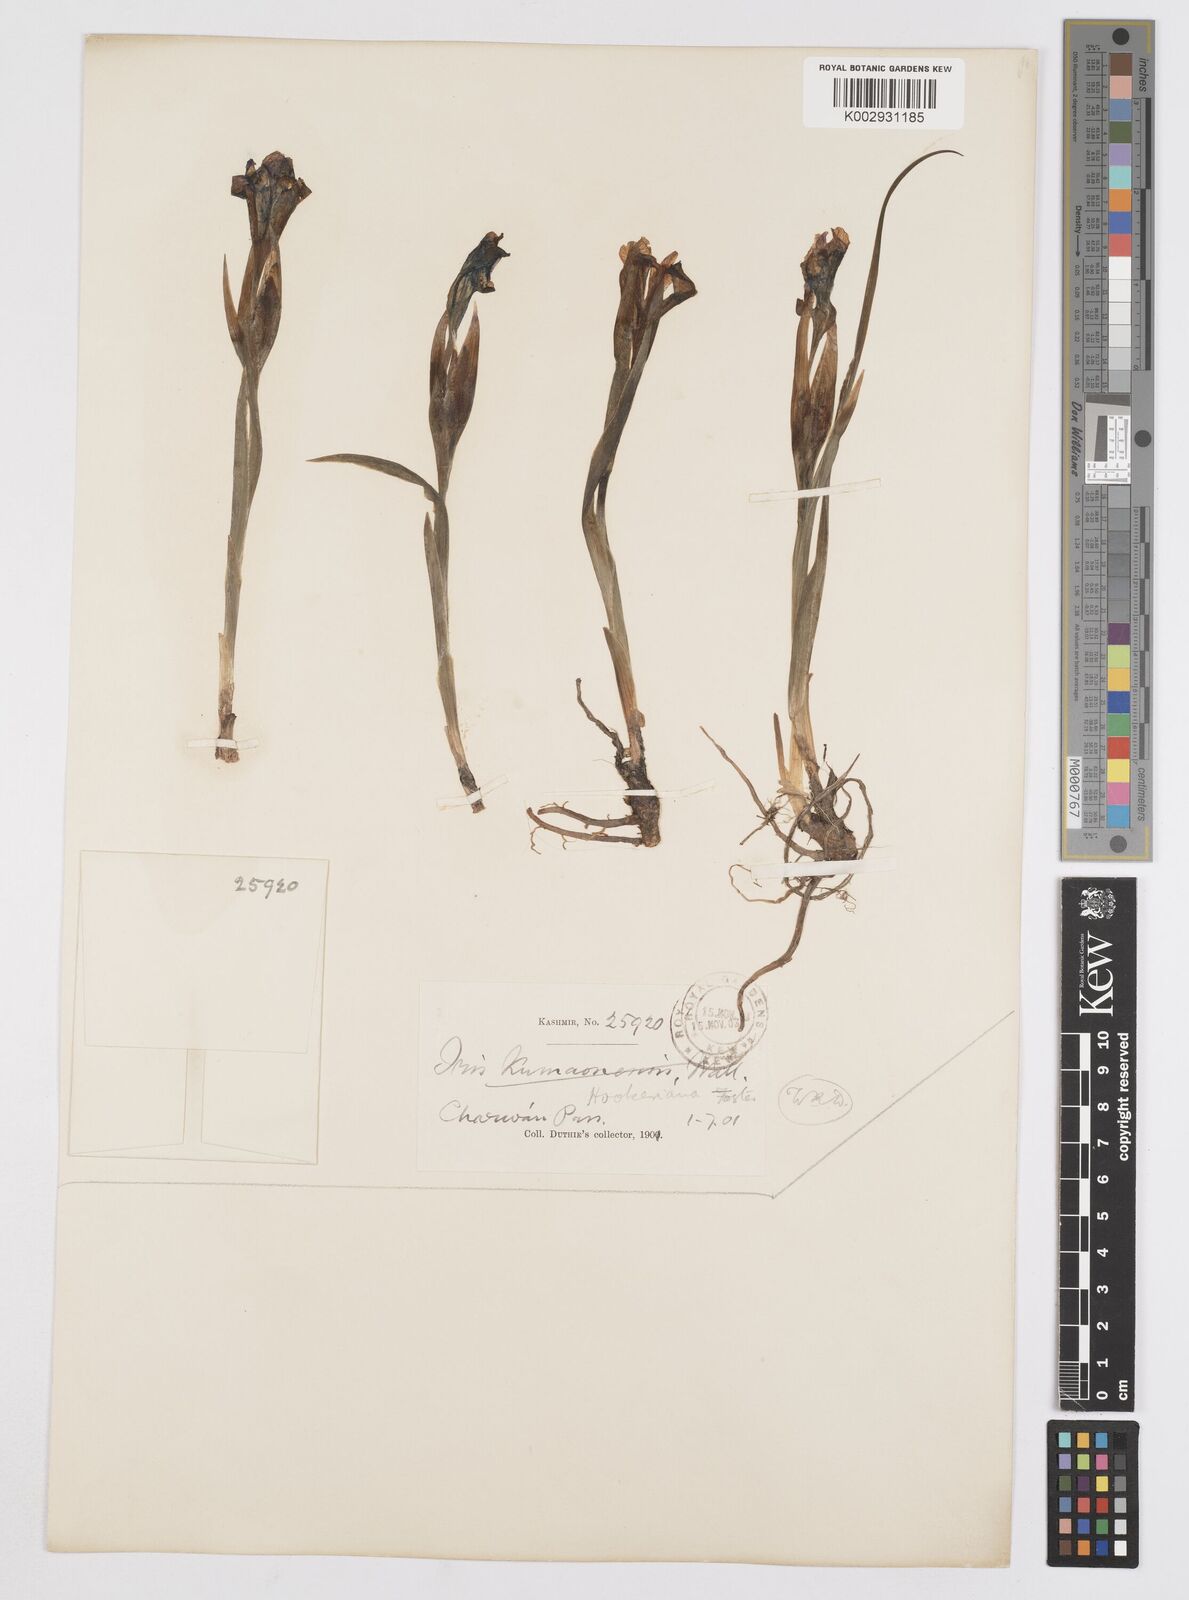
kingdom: Plantae
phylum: Tracheophyta
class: Liliopsida
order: Asparagales
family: Iridaceae
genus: Iris
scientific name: Iris hookeriana
